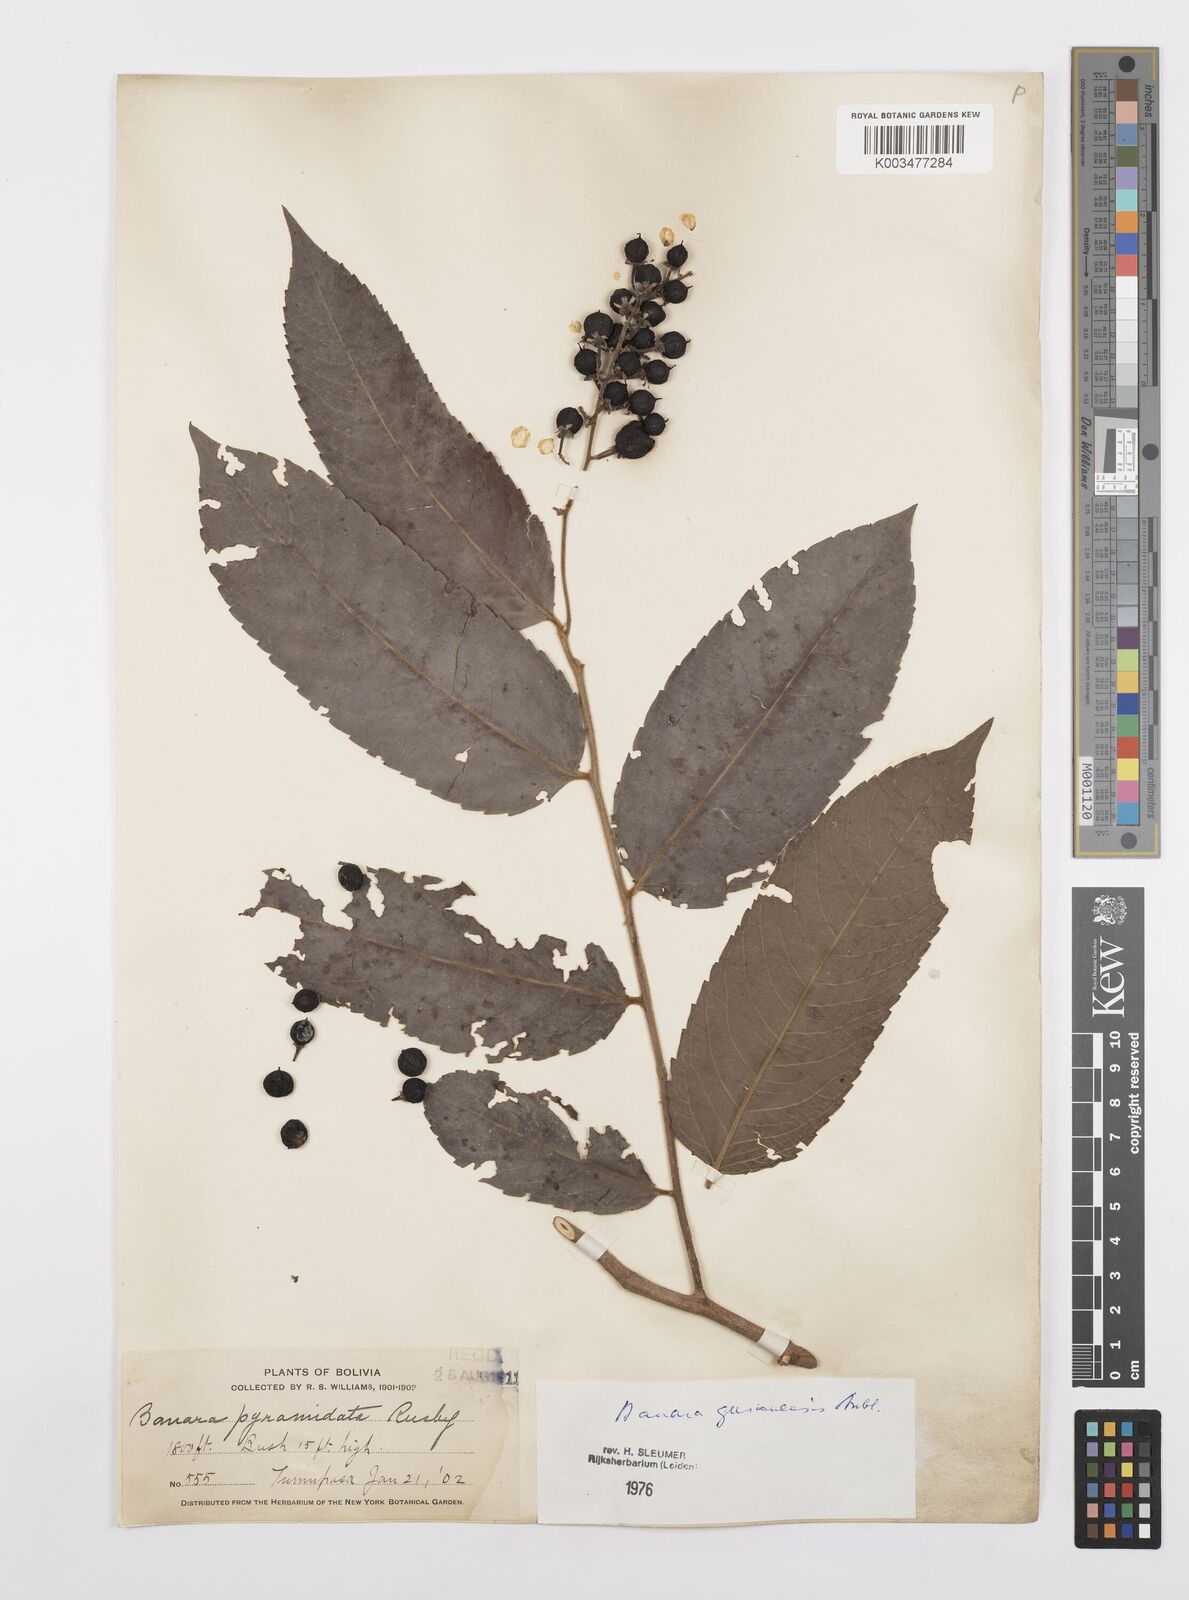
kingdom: Plantae
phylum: Tracheophyta
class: Magnoliopsida
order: Malpighiales
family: Salicaceae
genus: Banara
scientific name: Banara guianensis
